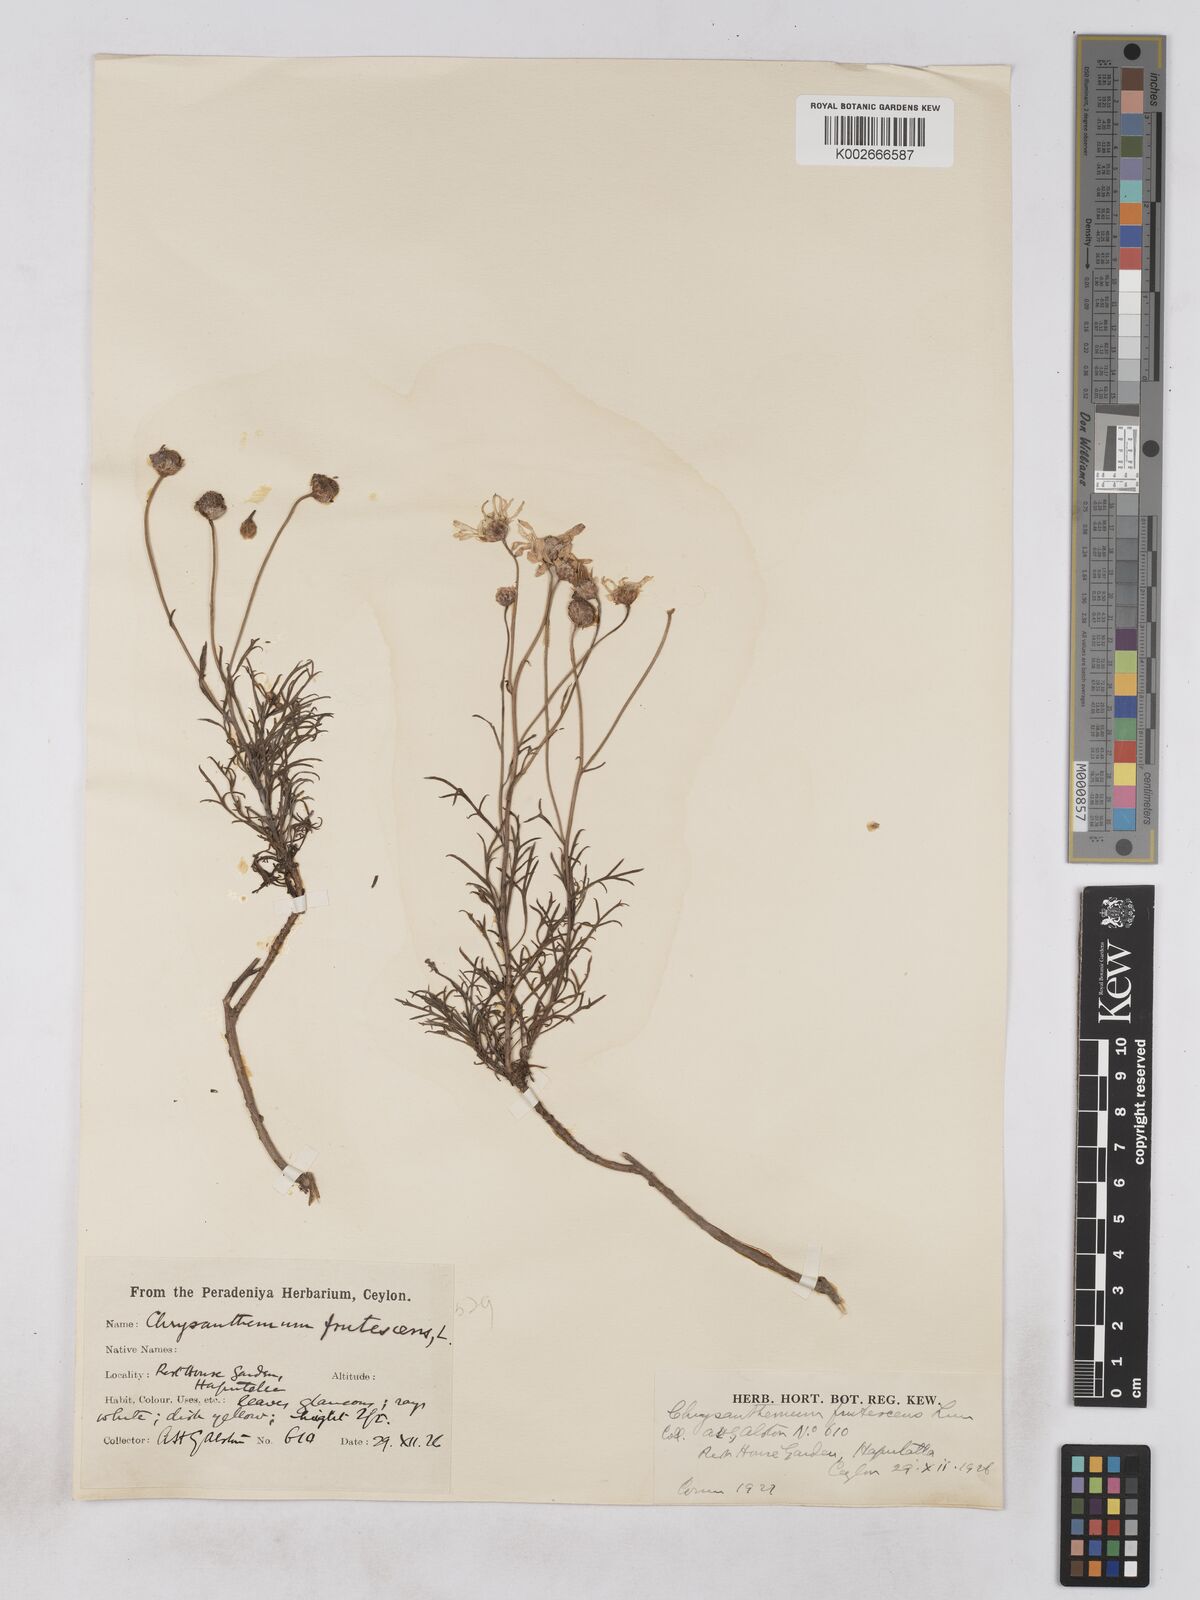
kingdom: Plantae
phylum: Tracheophyta
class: Magnoliopsida
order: Asterales
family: Asteraceae
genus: Argyranthemum
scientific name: Argyranthemum frutescens
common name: Paris daisy
